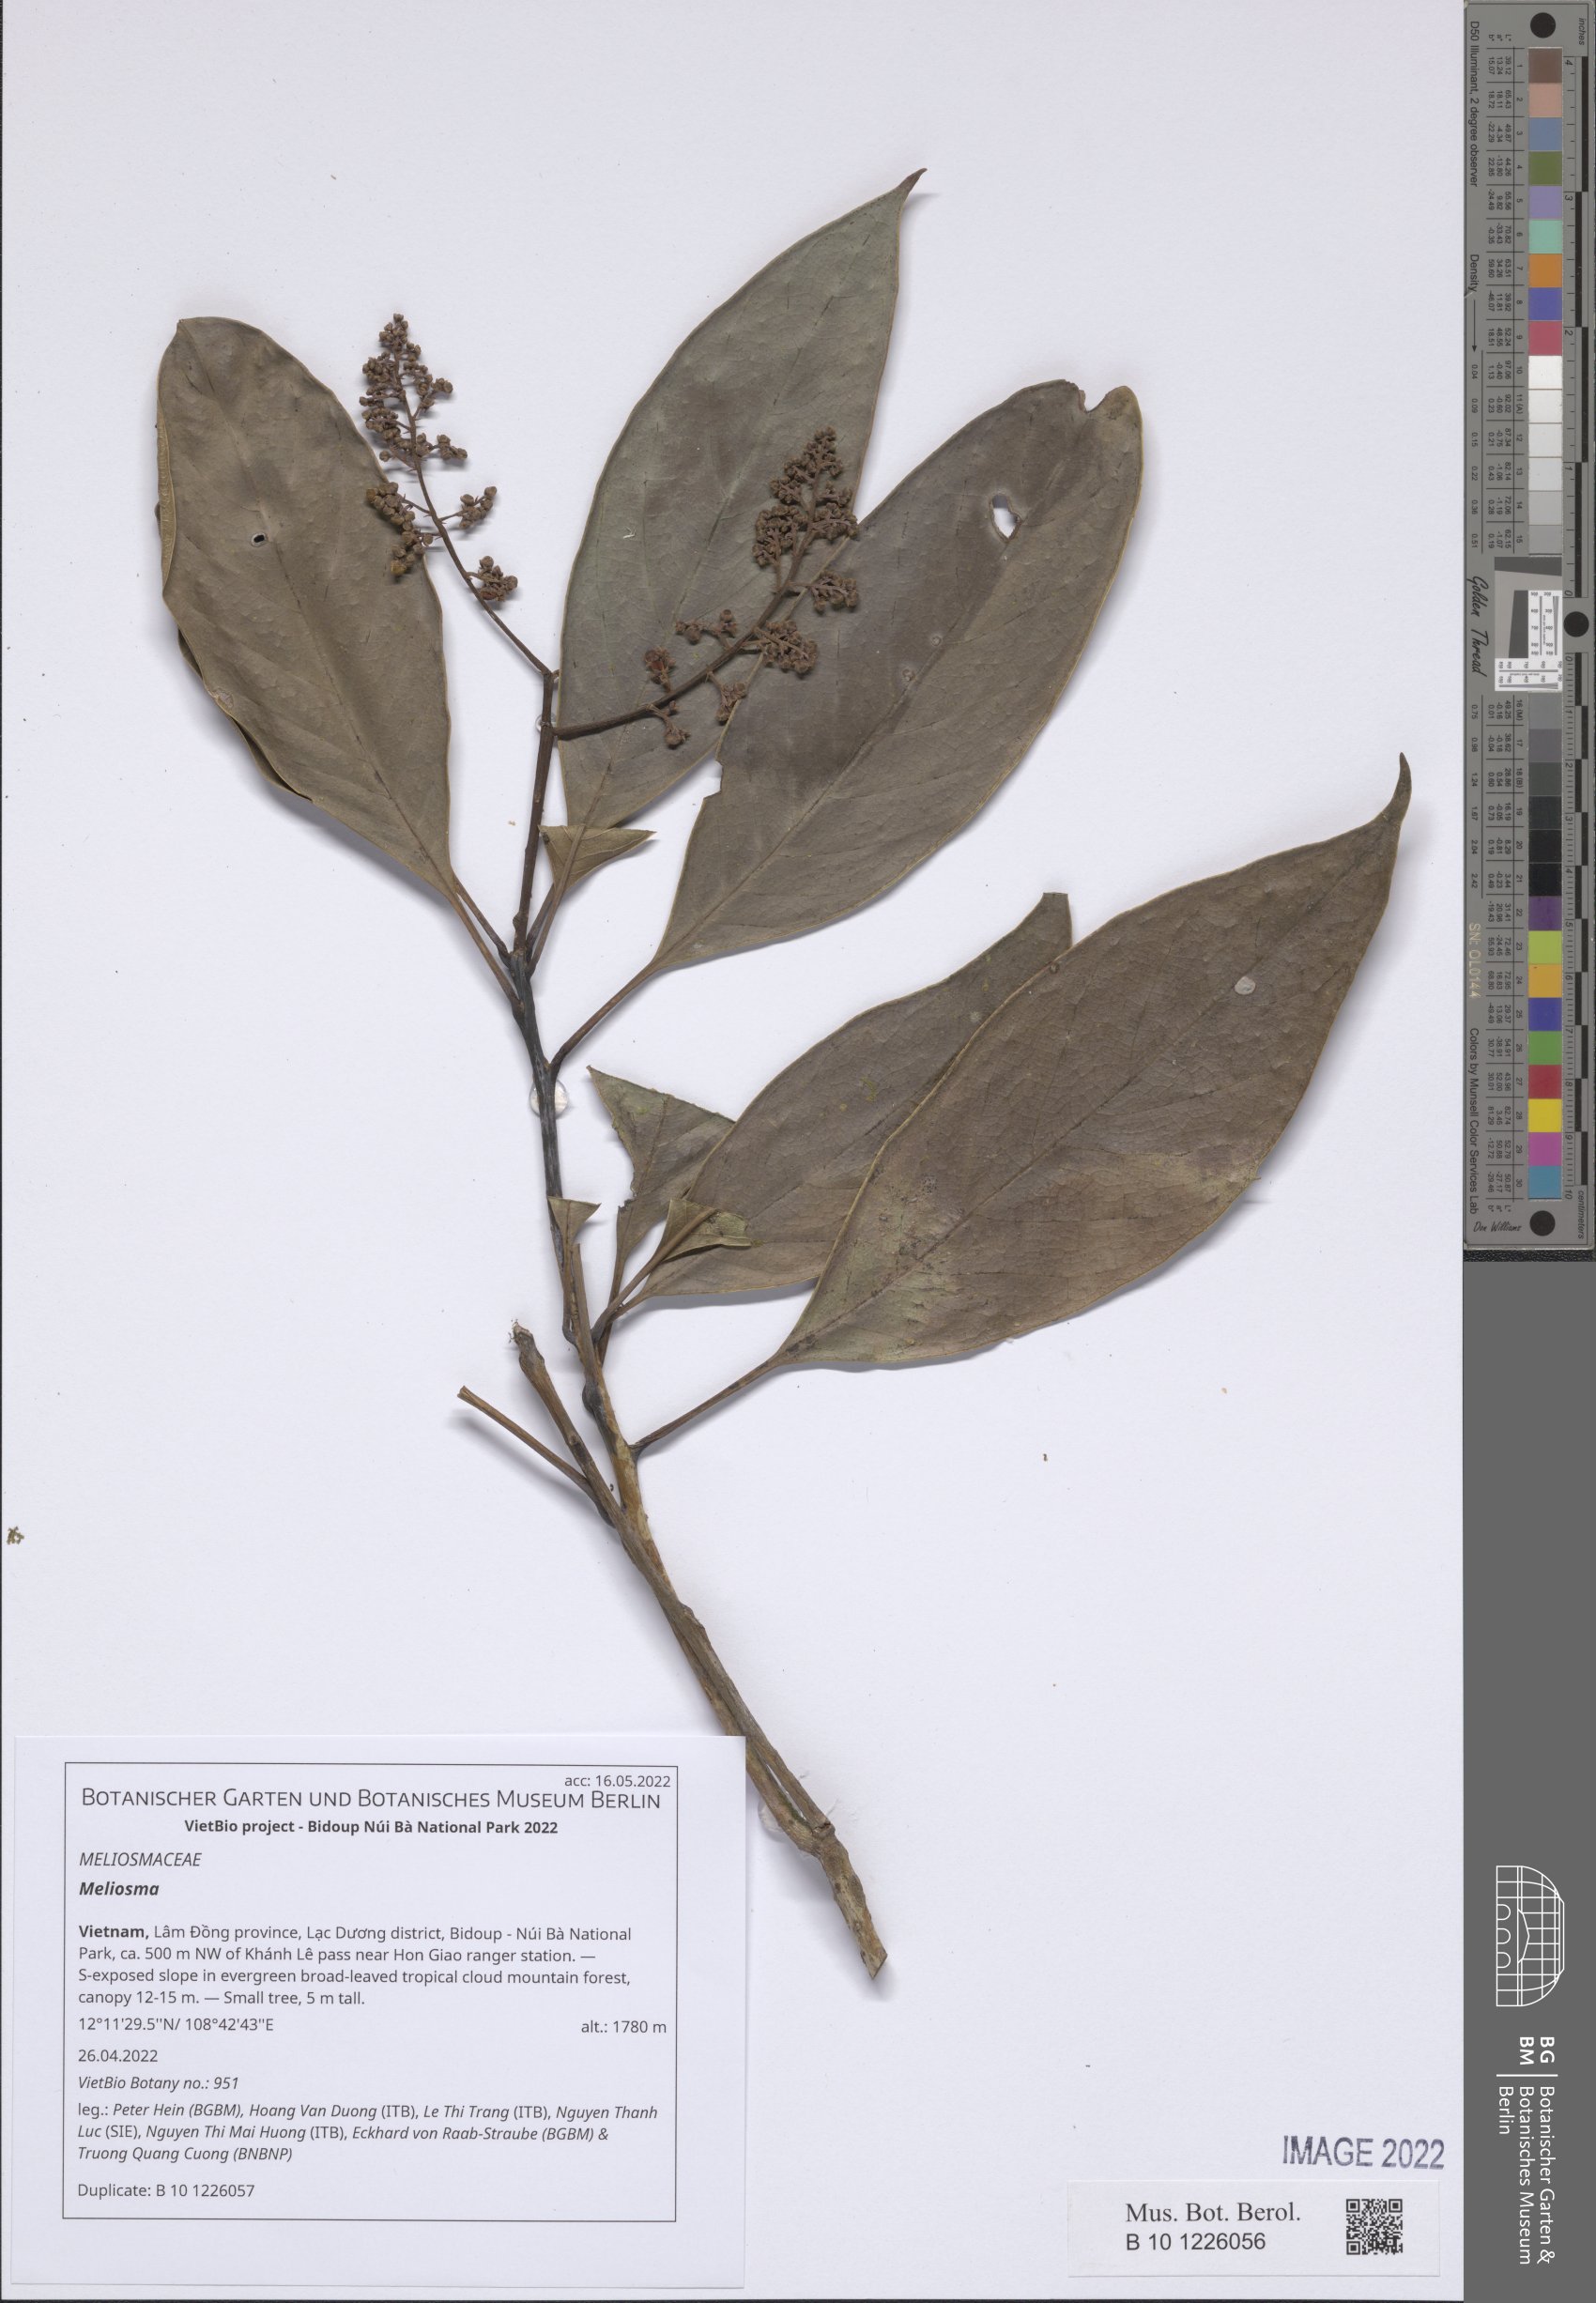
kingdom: Plantae
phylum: Tracheophyta
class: Magnoliopsida
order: Proteales
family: Sabiaceae
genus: Meliosma
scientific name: Meliosma
